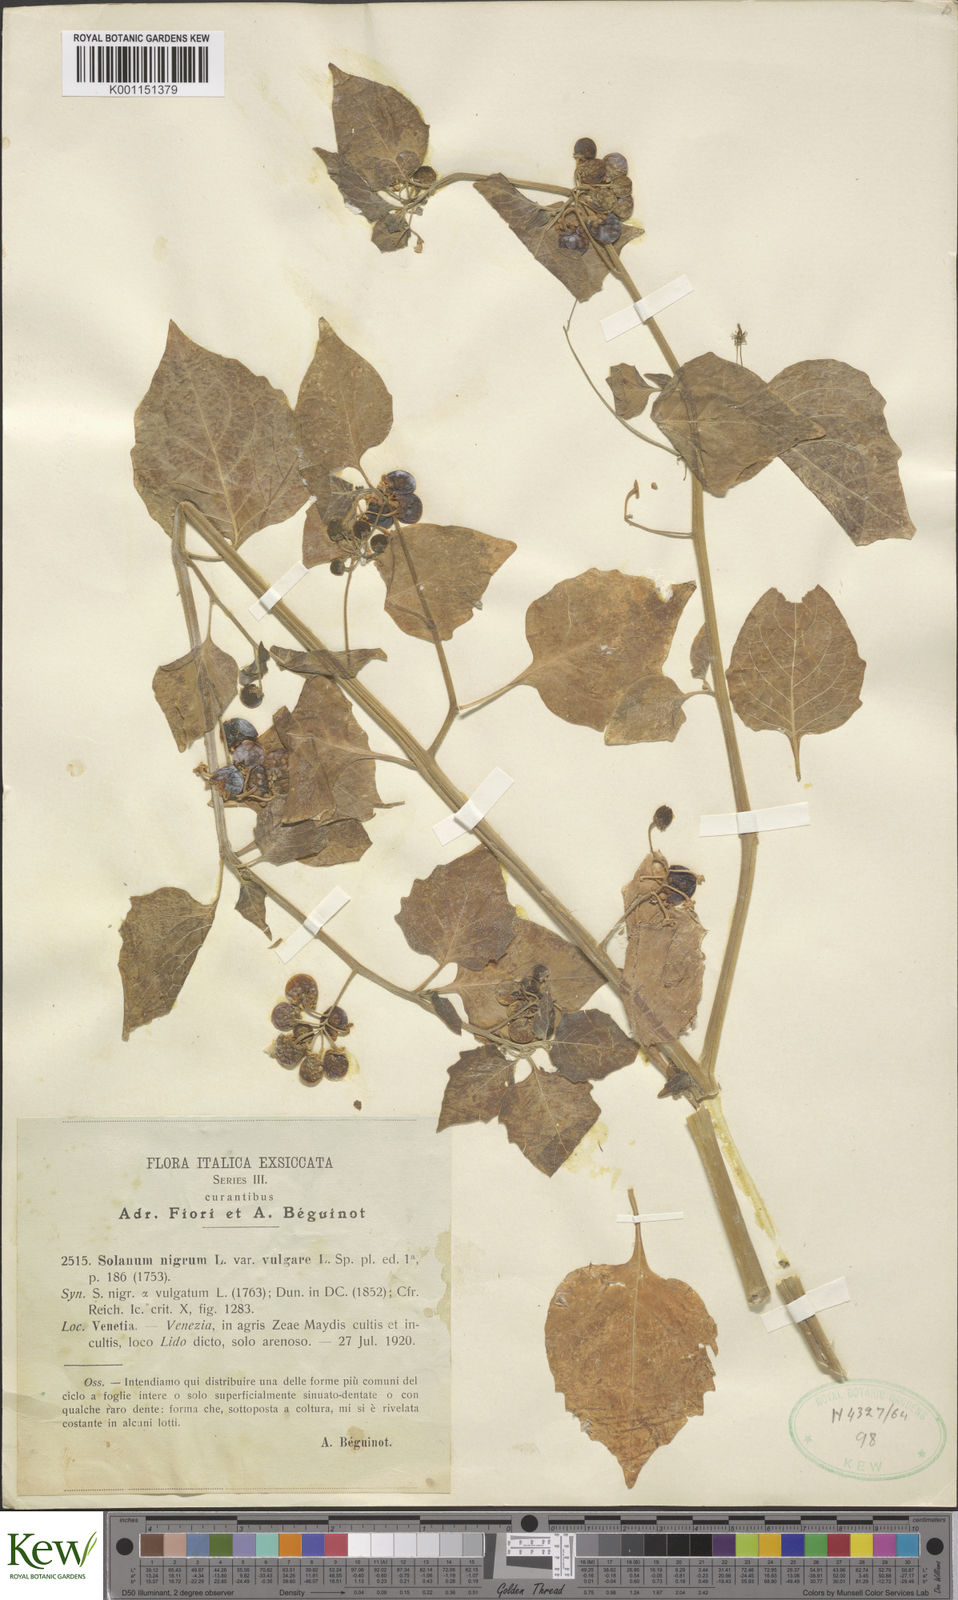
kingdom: Plantae
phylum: Tracheophyta
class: Magnoliopsida
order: Solanales
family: Solanaceae
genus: Solanum
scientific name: Solanum nigrum
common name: Black nightshade
